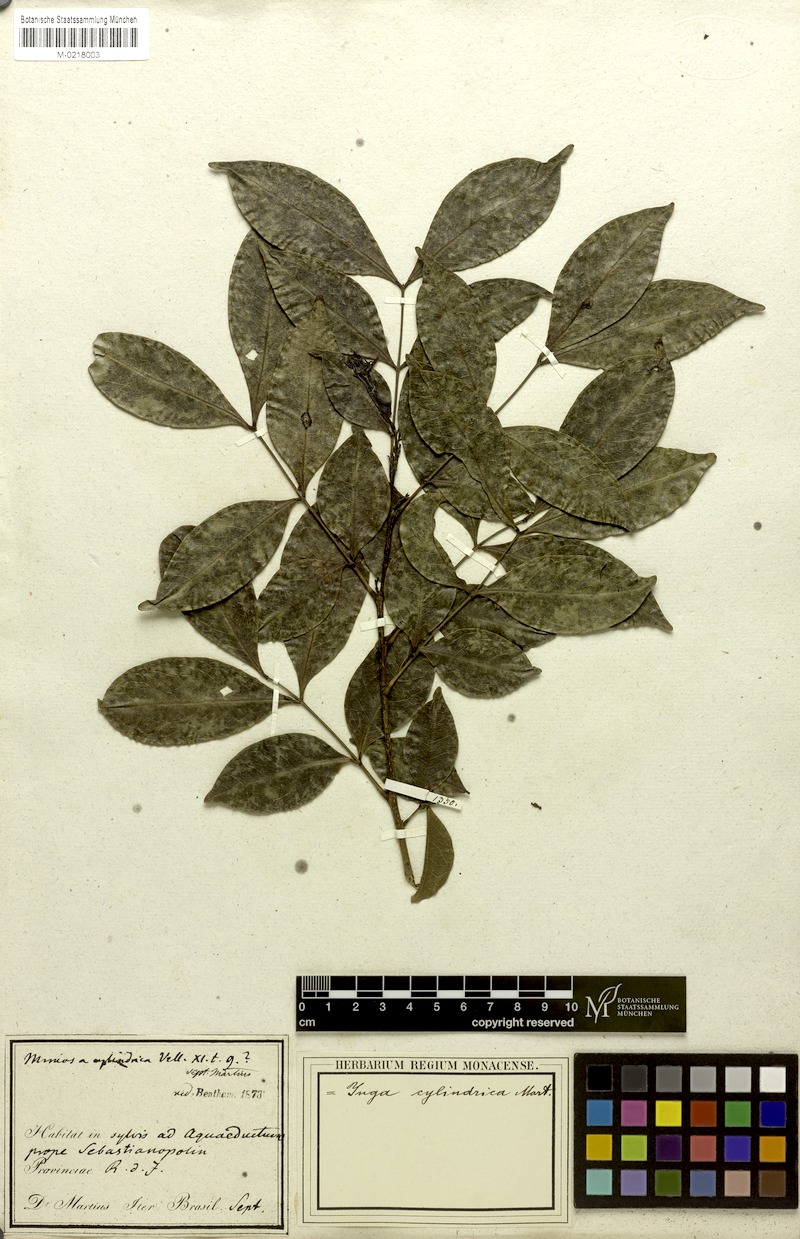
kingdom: Plantae
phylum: Tracheophyta
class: Magnoliopsida
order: Fabales
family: Fabaceae
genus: Inga
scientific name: Inga cylindrica
